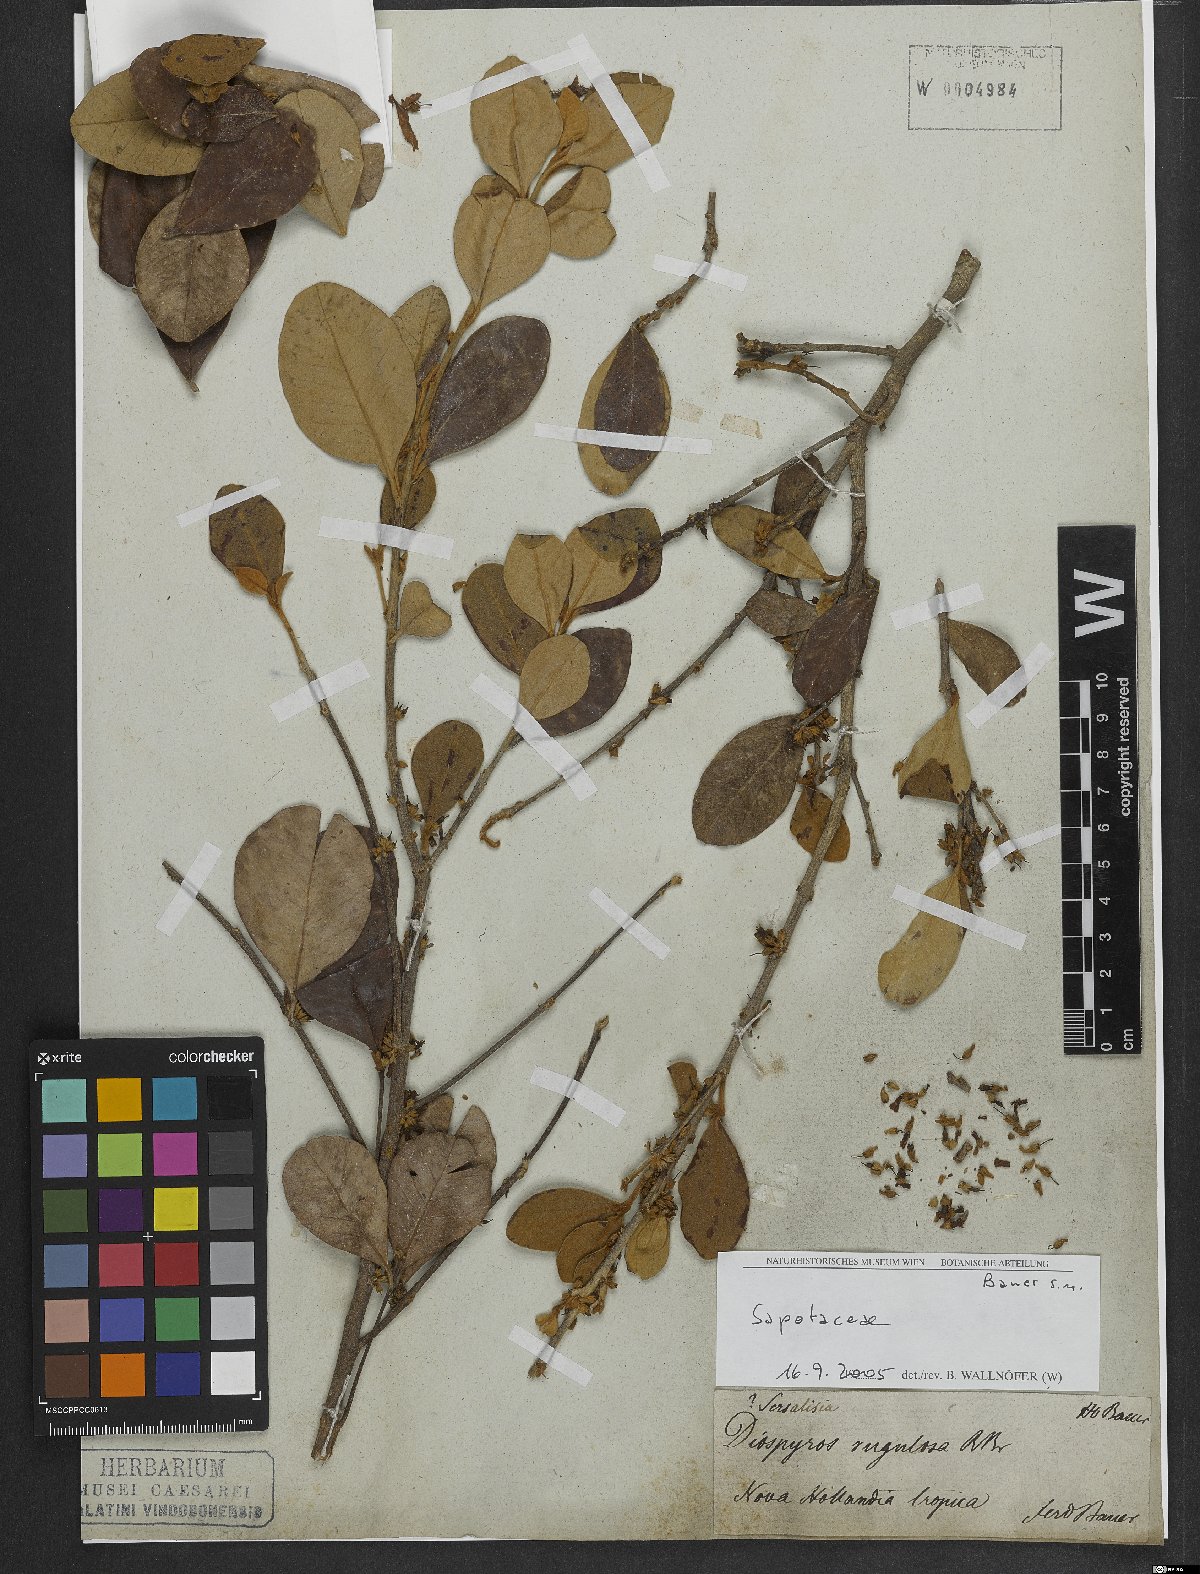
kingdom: Plantae
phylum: Tracheophyta
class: Magnoliopsida
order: Ericales
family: Sapotaceae
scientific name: Sapotaceae
